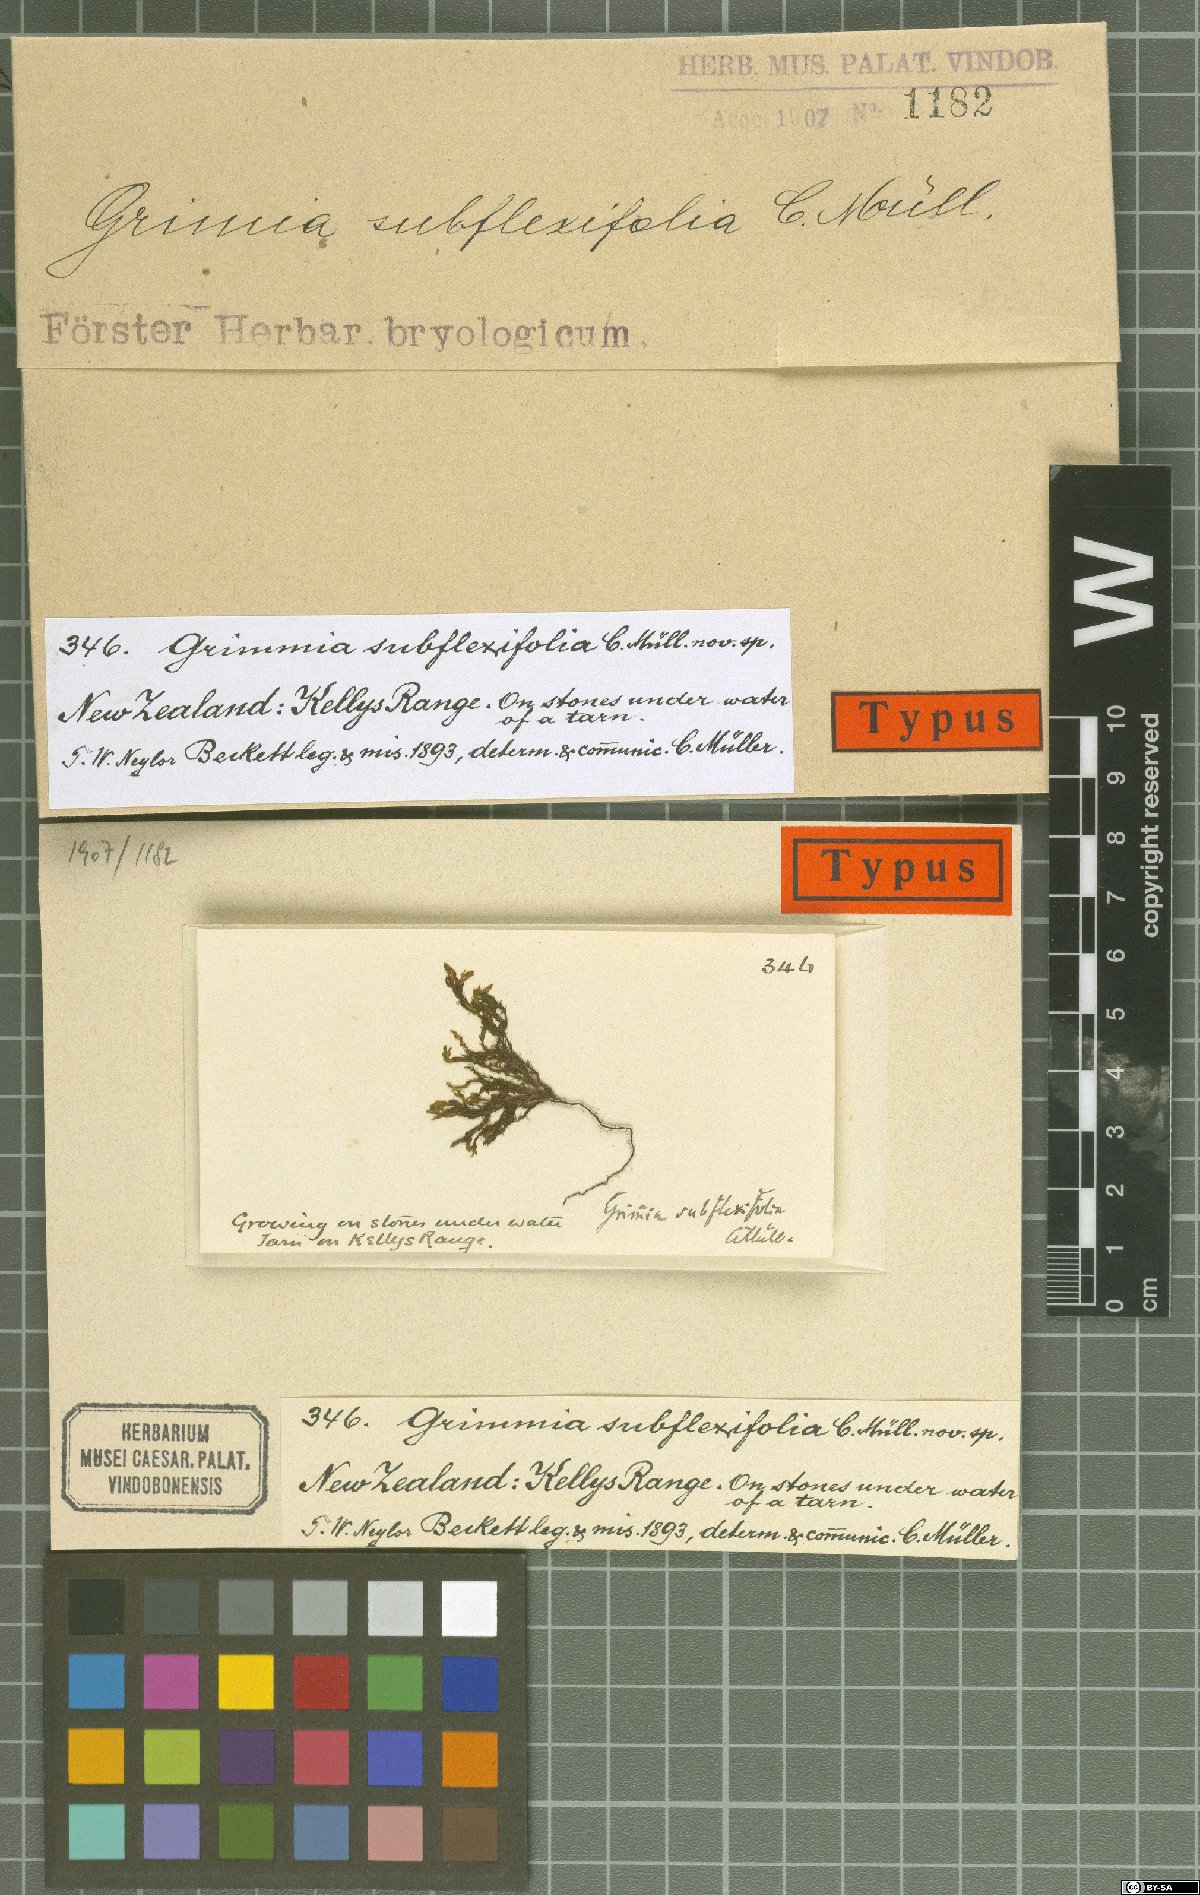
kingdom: Plantae
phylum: Bryophyta
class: Bryopsida
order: Grimmiales
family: Grimmiaceae
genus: Schistidium
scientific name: Schistidium flexifolium
